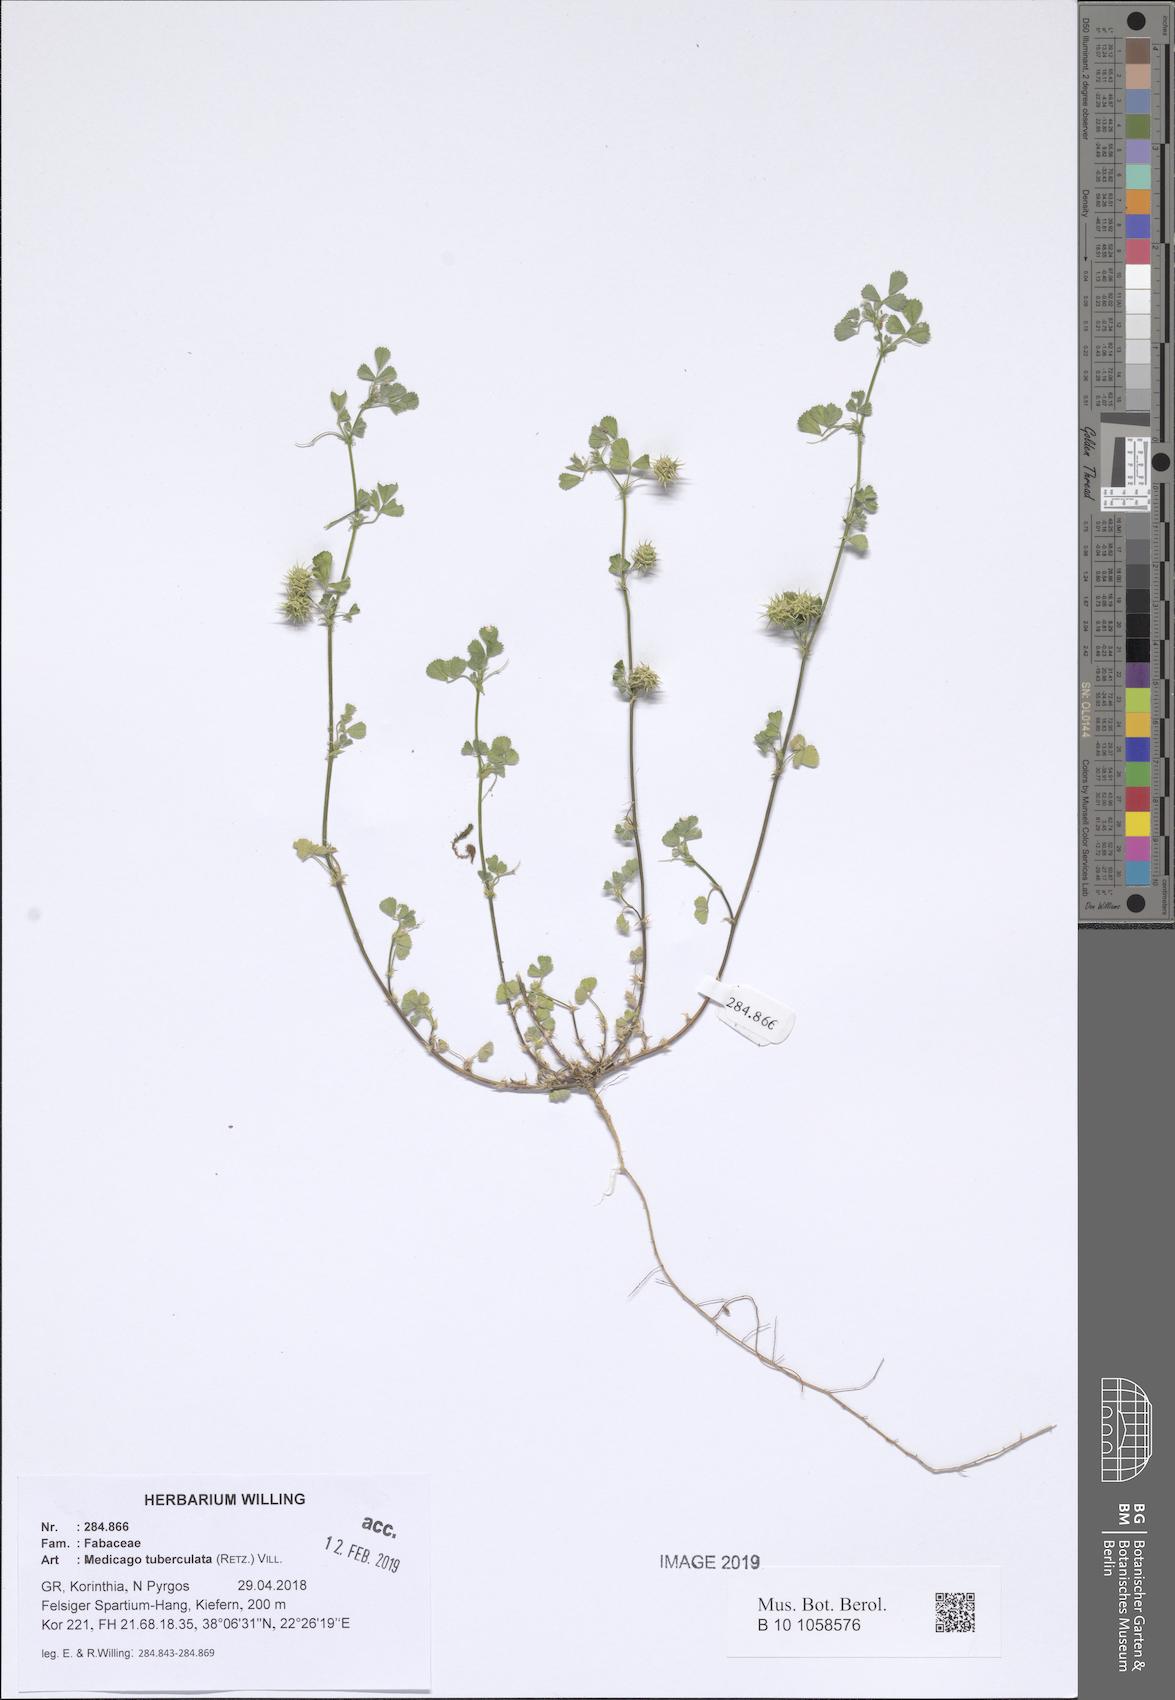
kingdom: Plantae
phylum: Tracheophyta
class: Magnoliopsida
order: Fabales
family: Fabaceae
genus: Medicago
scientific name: Medicago turbinata
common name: Southern medick
